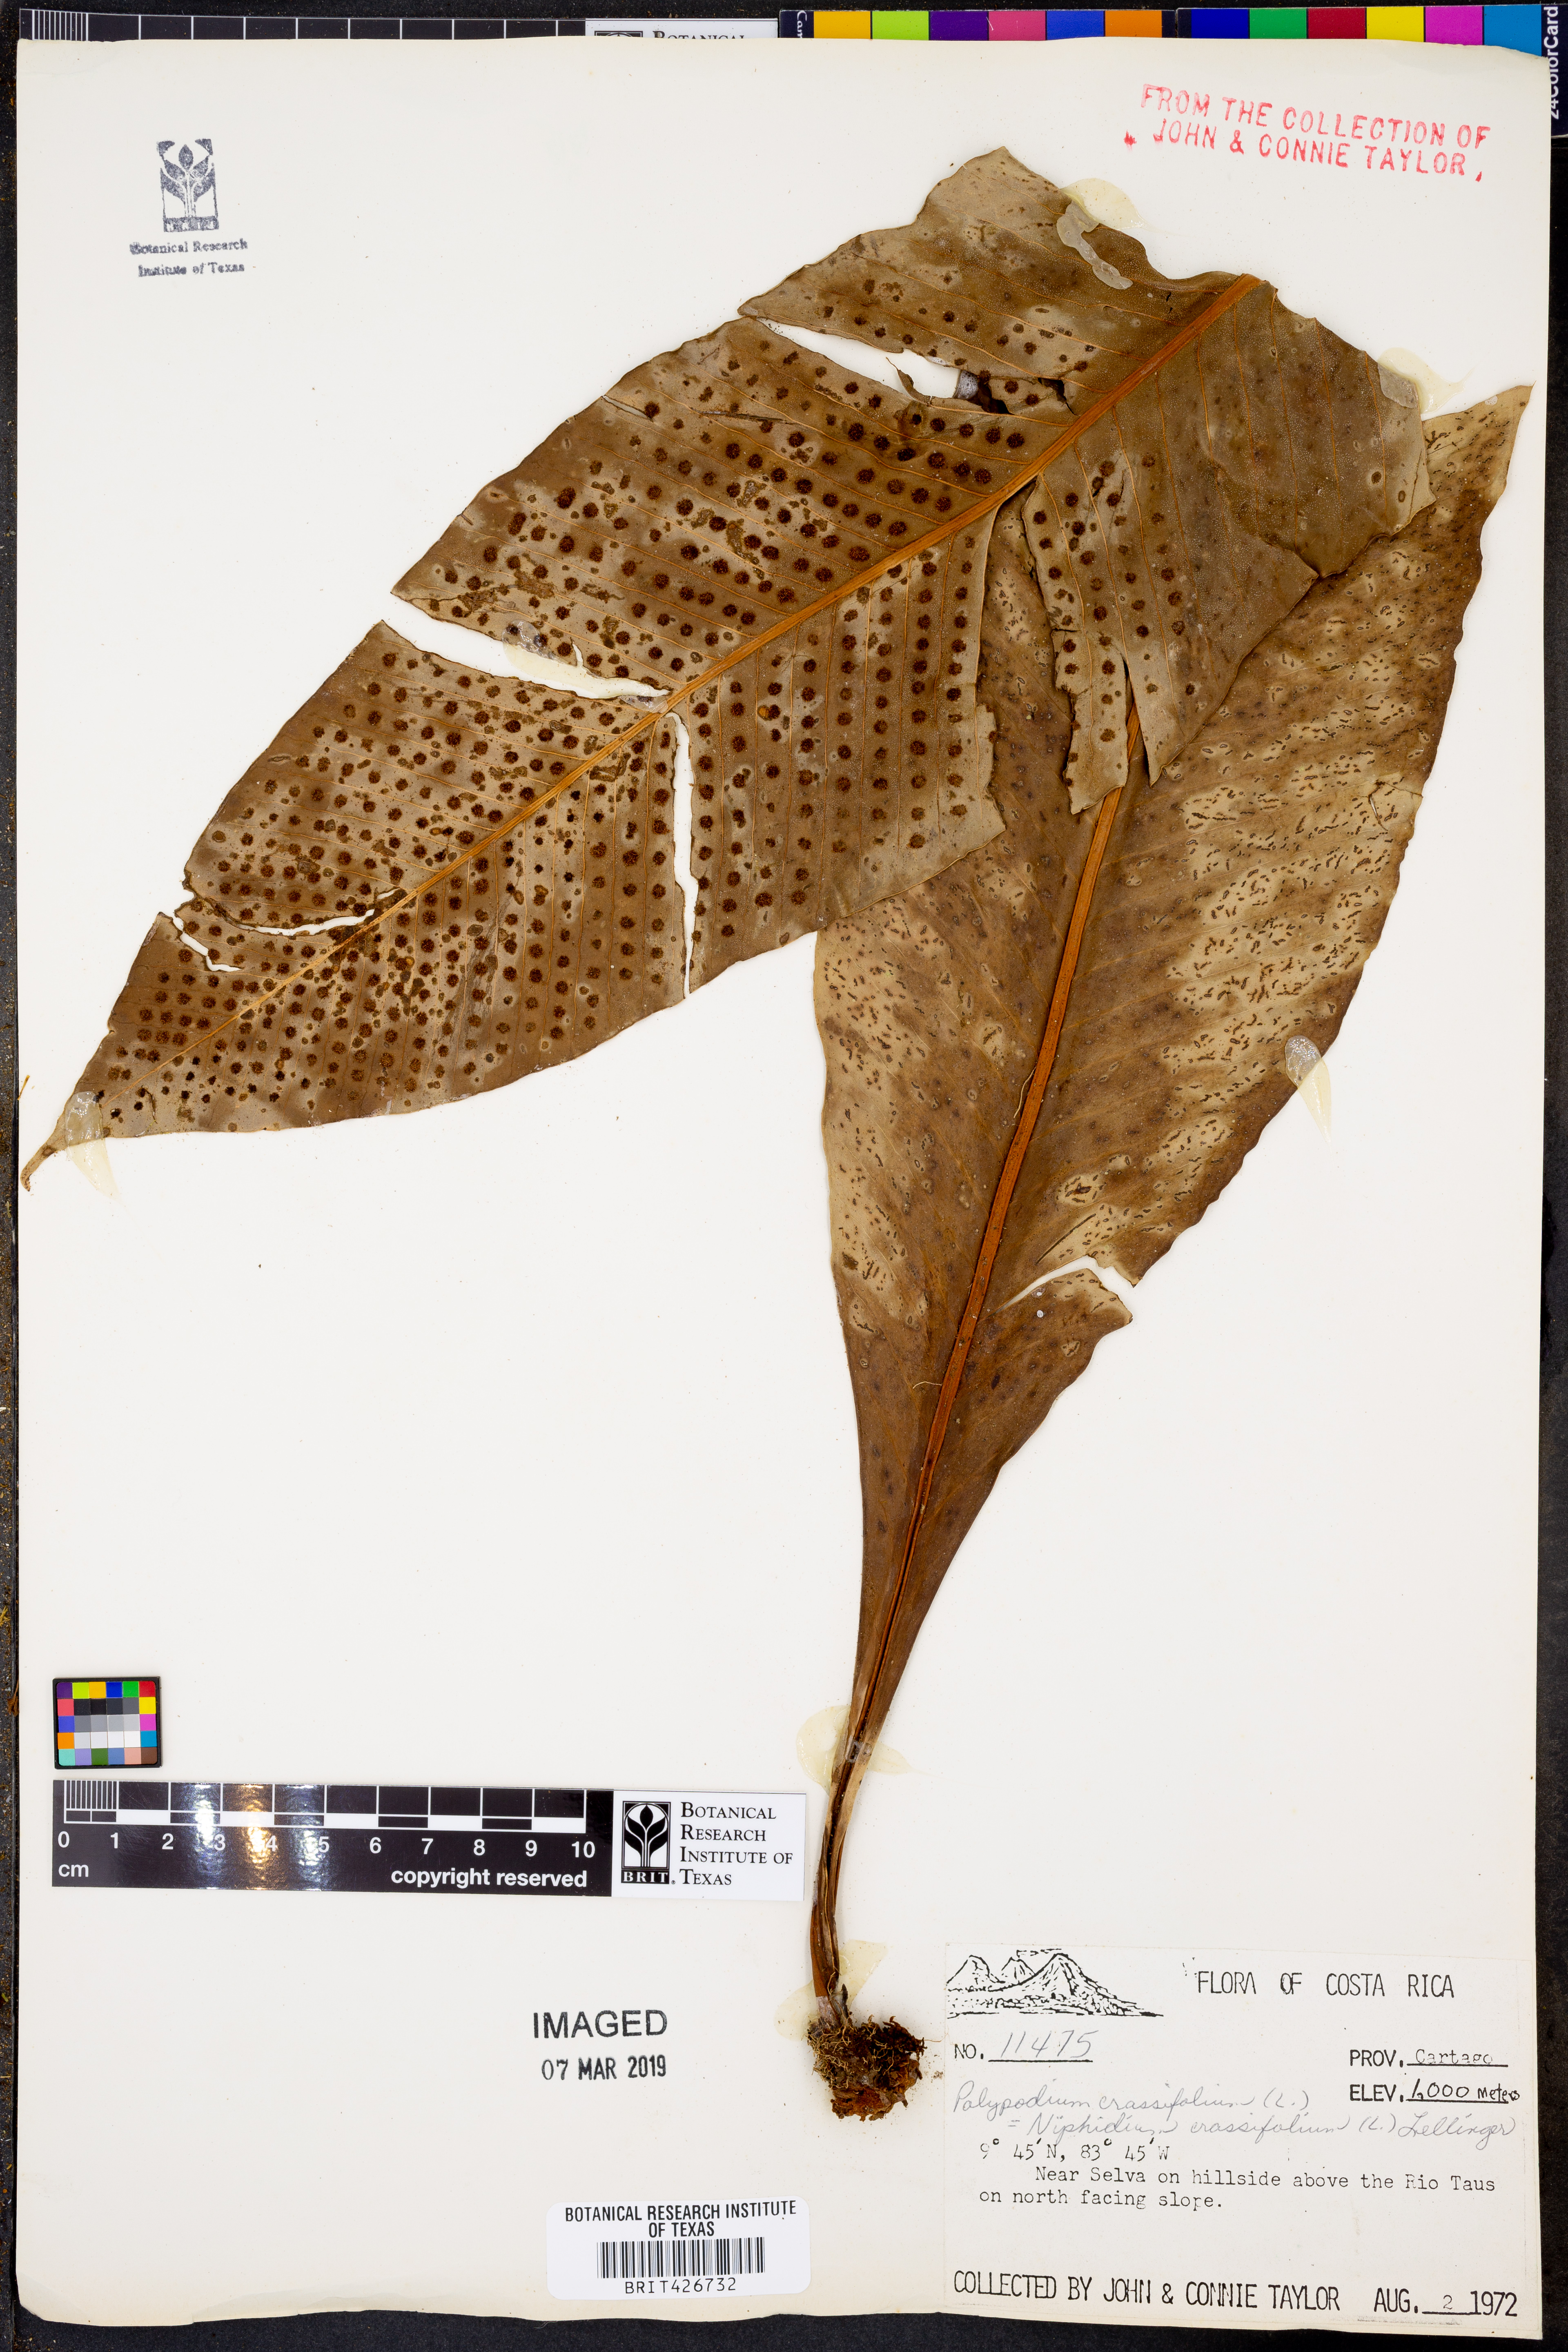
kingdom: Plantae
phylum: Tracheophyta
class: Polypodiopsida
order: Polypodiales
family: Polypodiaceae
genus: Niphidium
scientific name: Niphidium crassifolium
